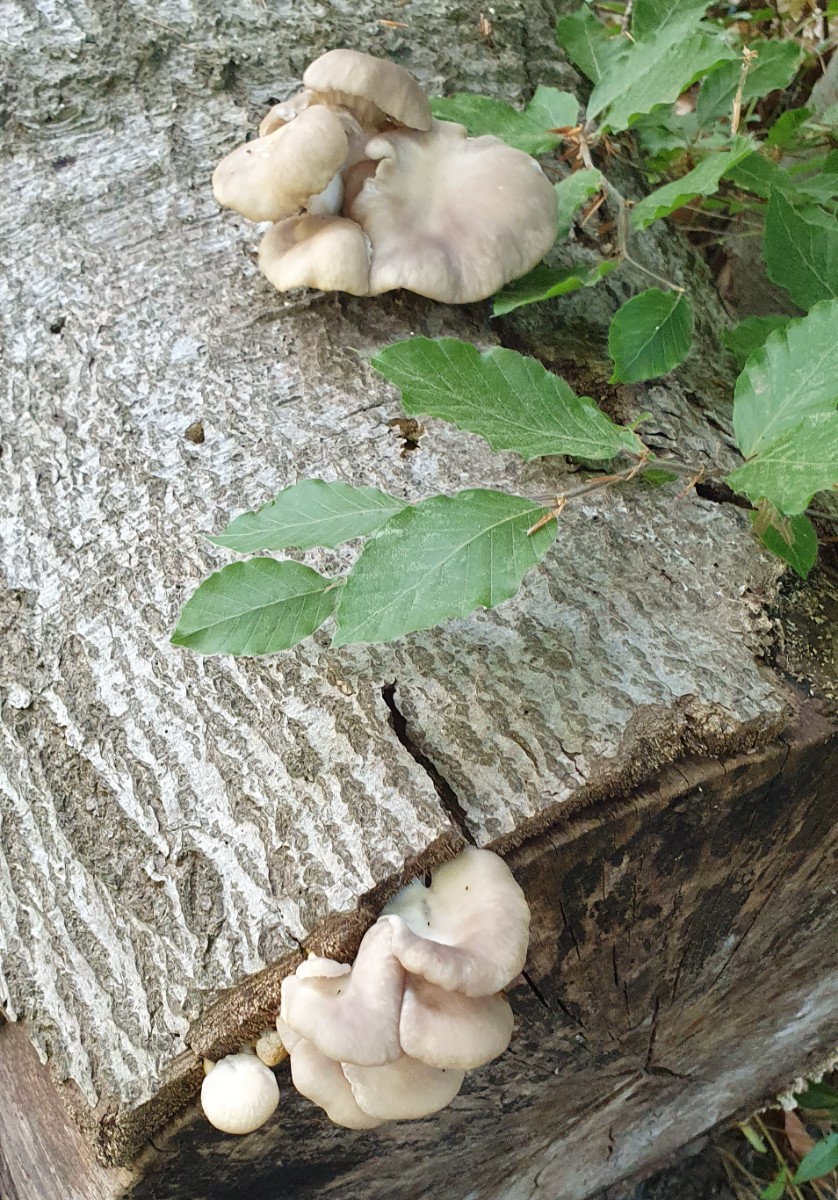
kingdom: Fungi
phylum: Basidiomycota
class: Agaricomycetes
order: Agaricales
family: Pleurotaceae
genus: Pleurotus
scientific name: Pleurotus pulmonarius
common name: sommer-østershat
